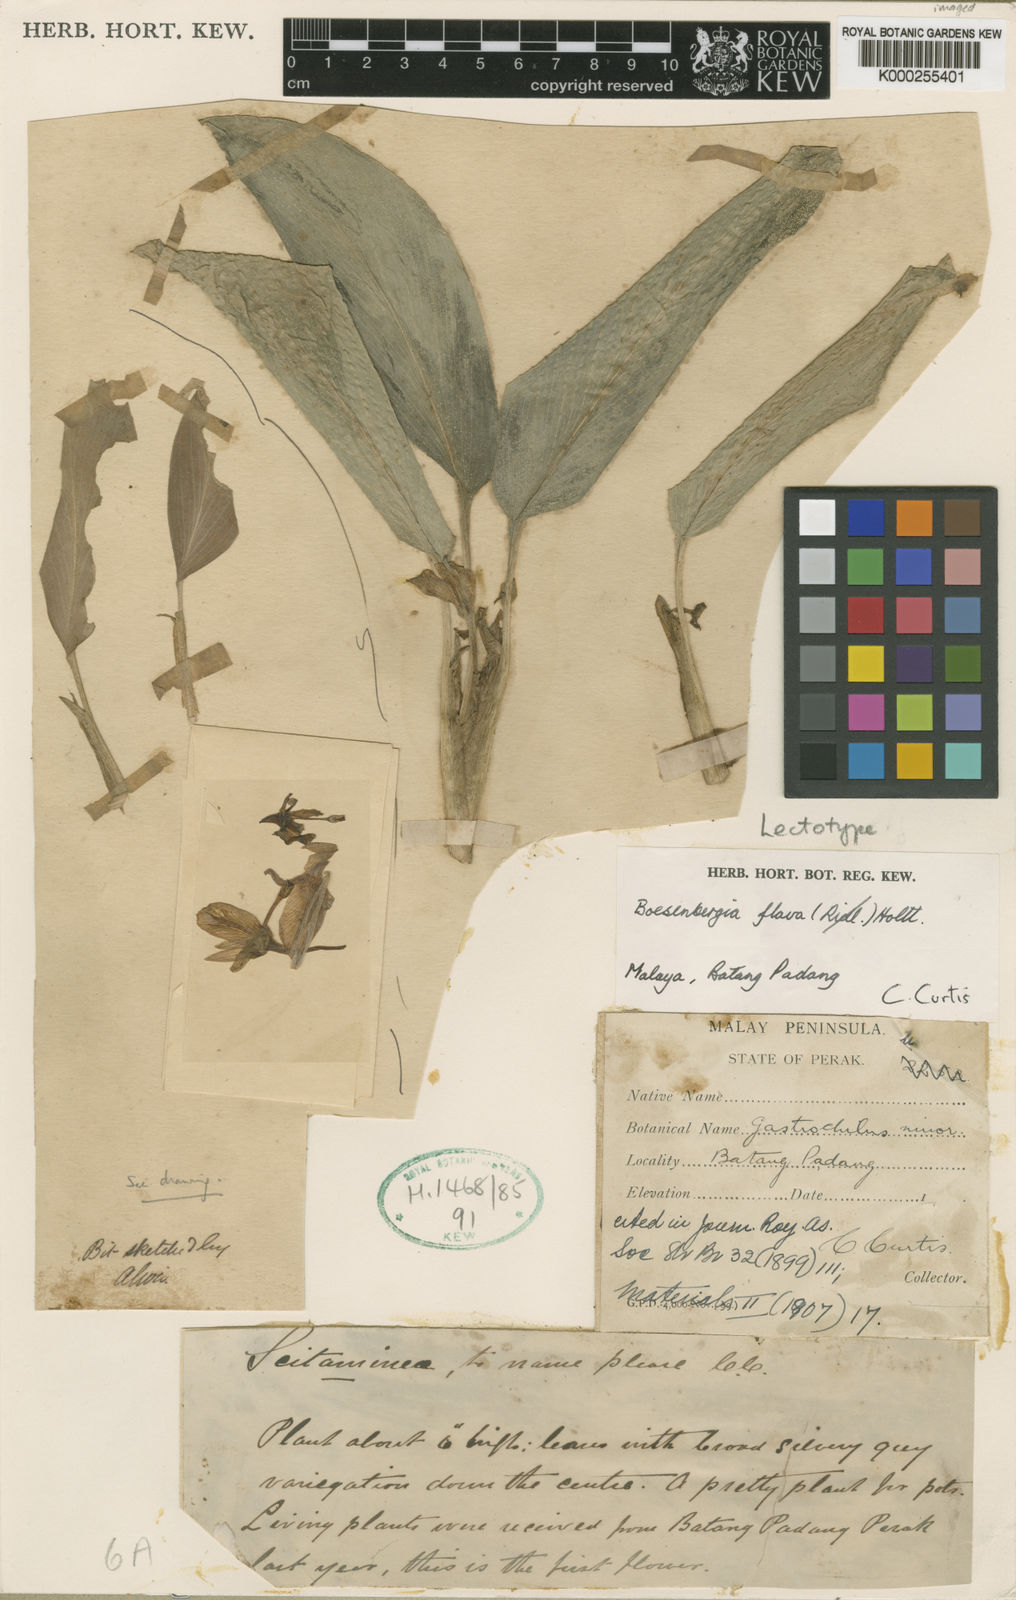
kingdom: Plantae
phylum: Tracheophyta
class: Liliopsida
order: Zingiberales
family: Zingiberaceae
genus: Boesenbergia
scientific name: Boesenbergia flava
